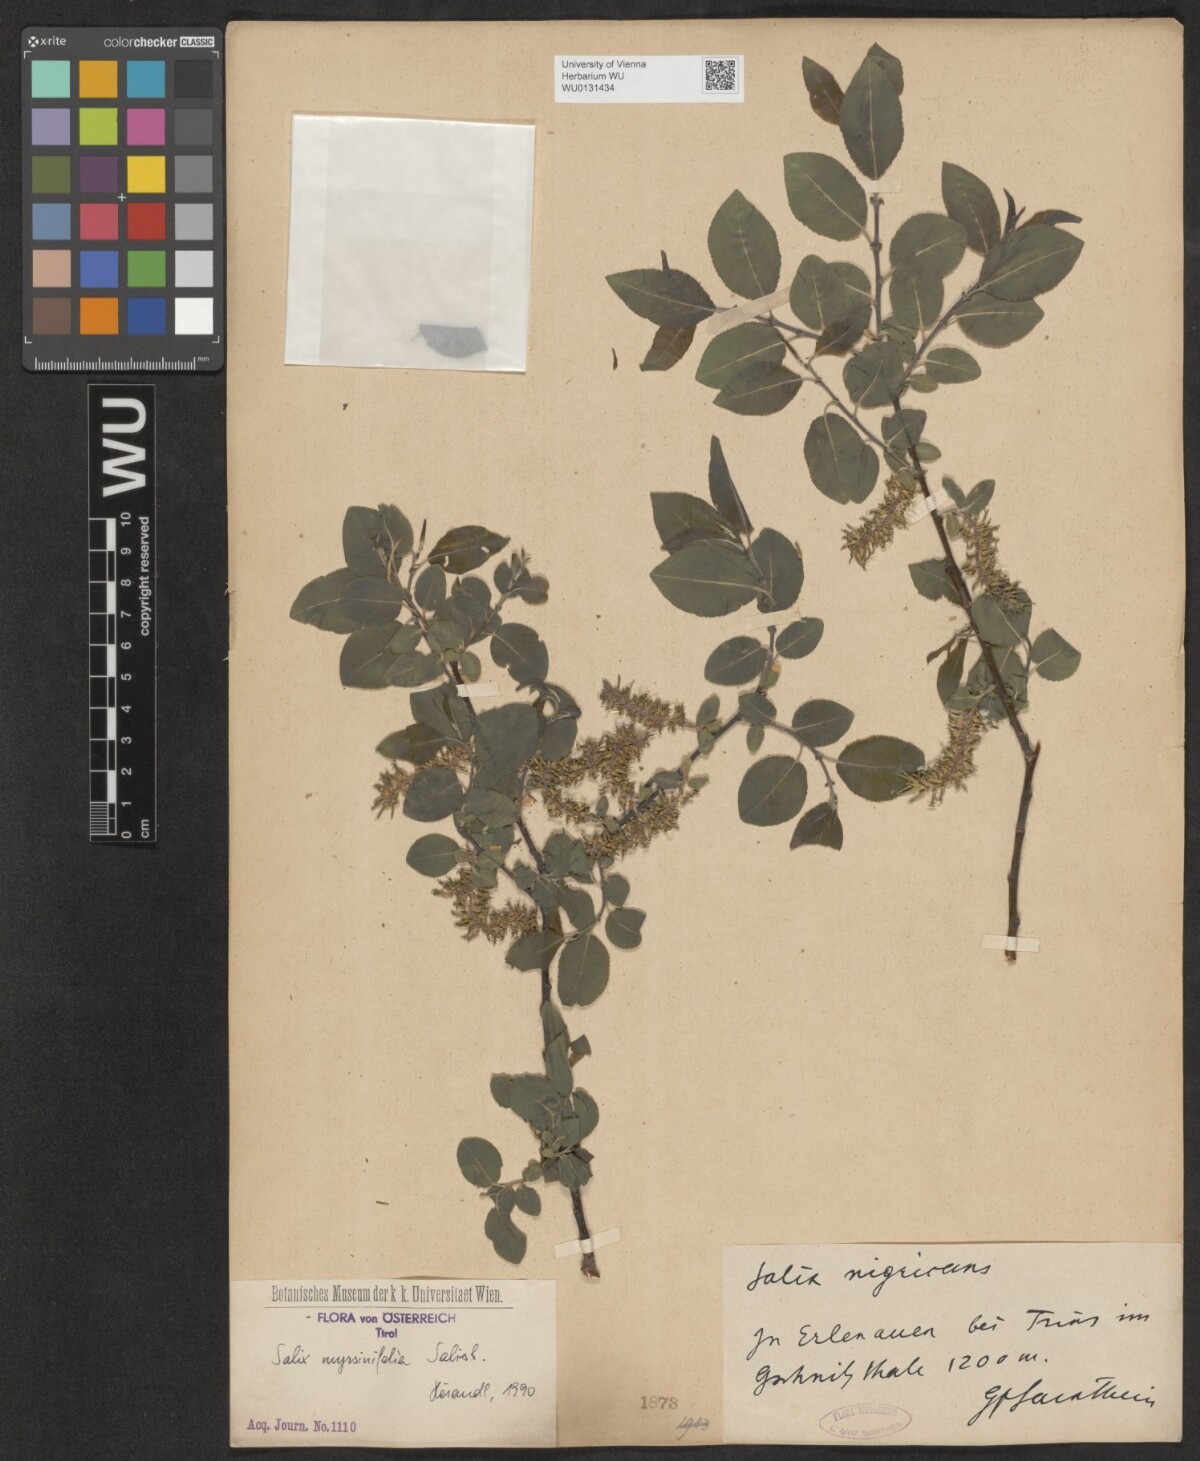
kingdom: Plantae
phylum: Tracheophyta
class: Magnoliopsida
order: Malpighiales
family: Salicaceae
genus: Salix
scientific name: Salix myrsinifolia
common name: Dark-leaved willow
